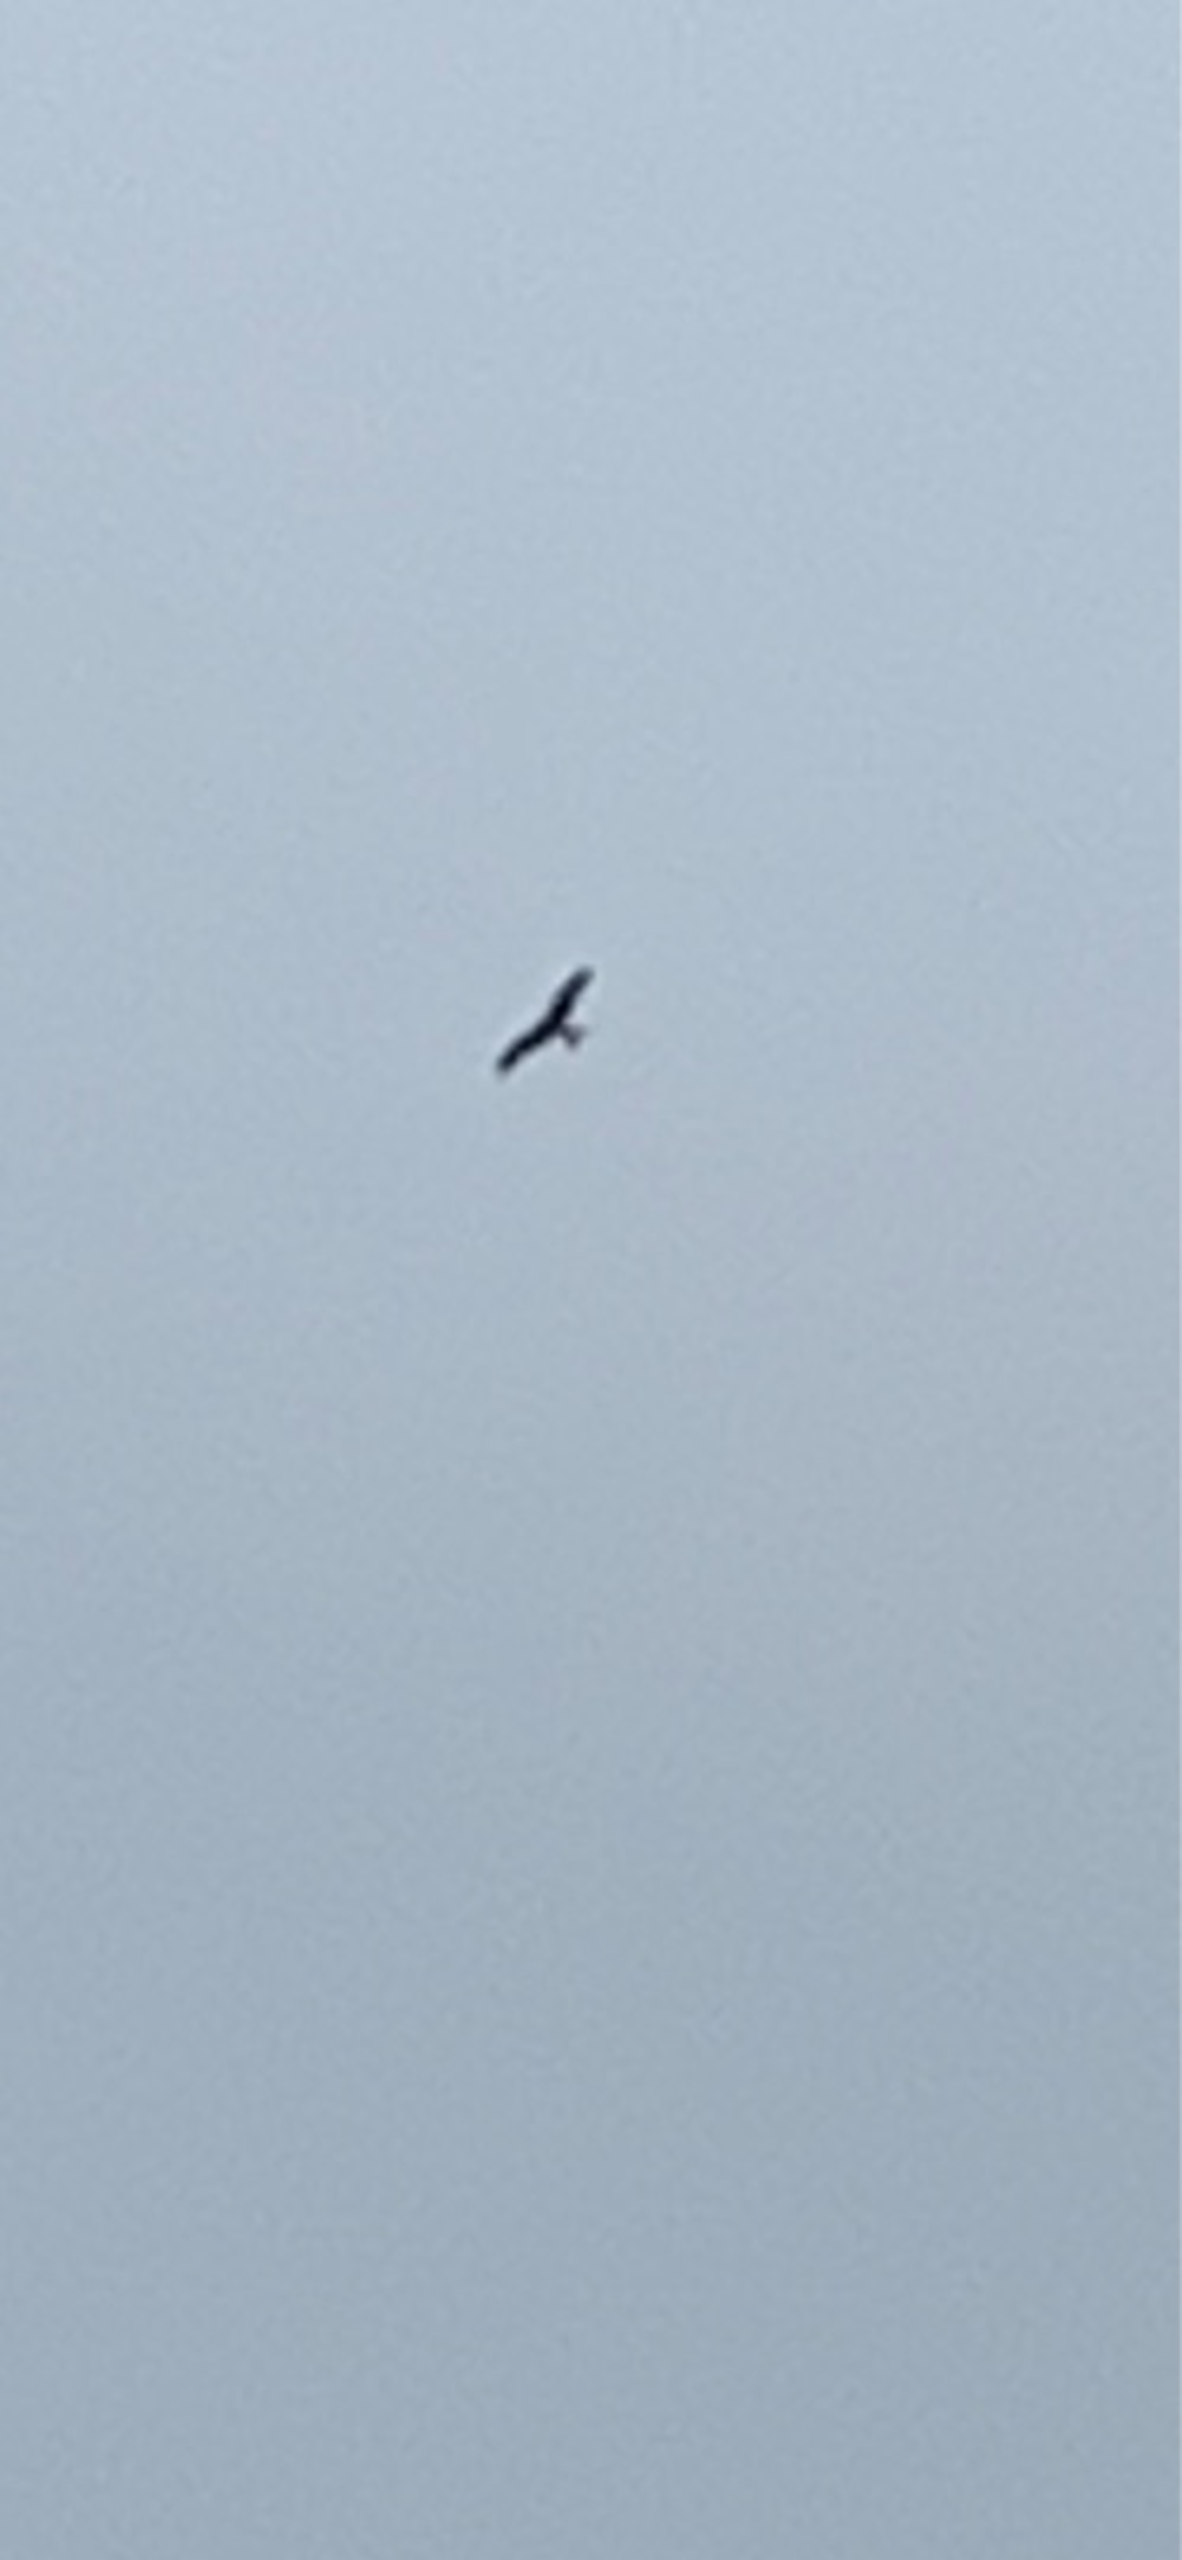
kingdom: Animalia
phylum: Chordata
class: Aves
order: Accipitriformes
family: Accipitridae
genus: Milvus
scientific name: Milvus milvus
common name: Rød glente
